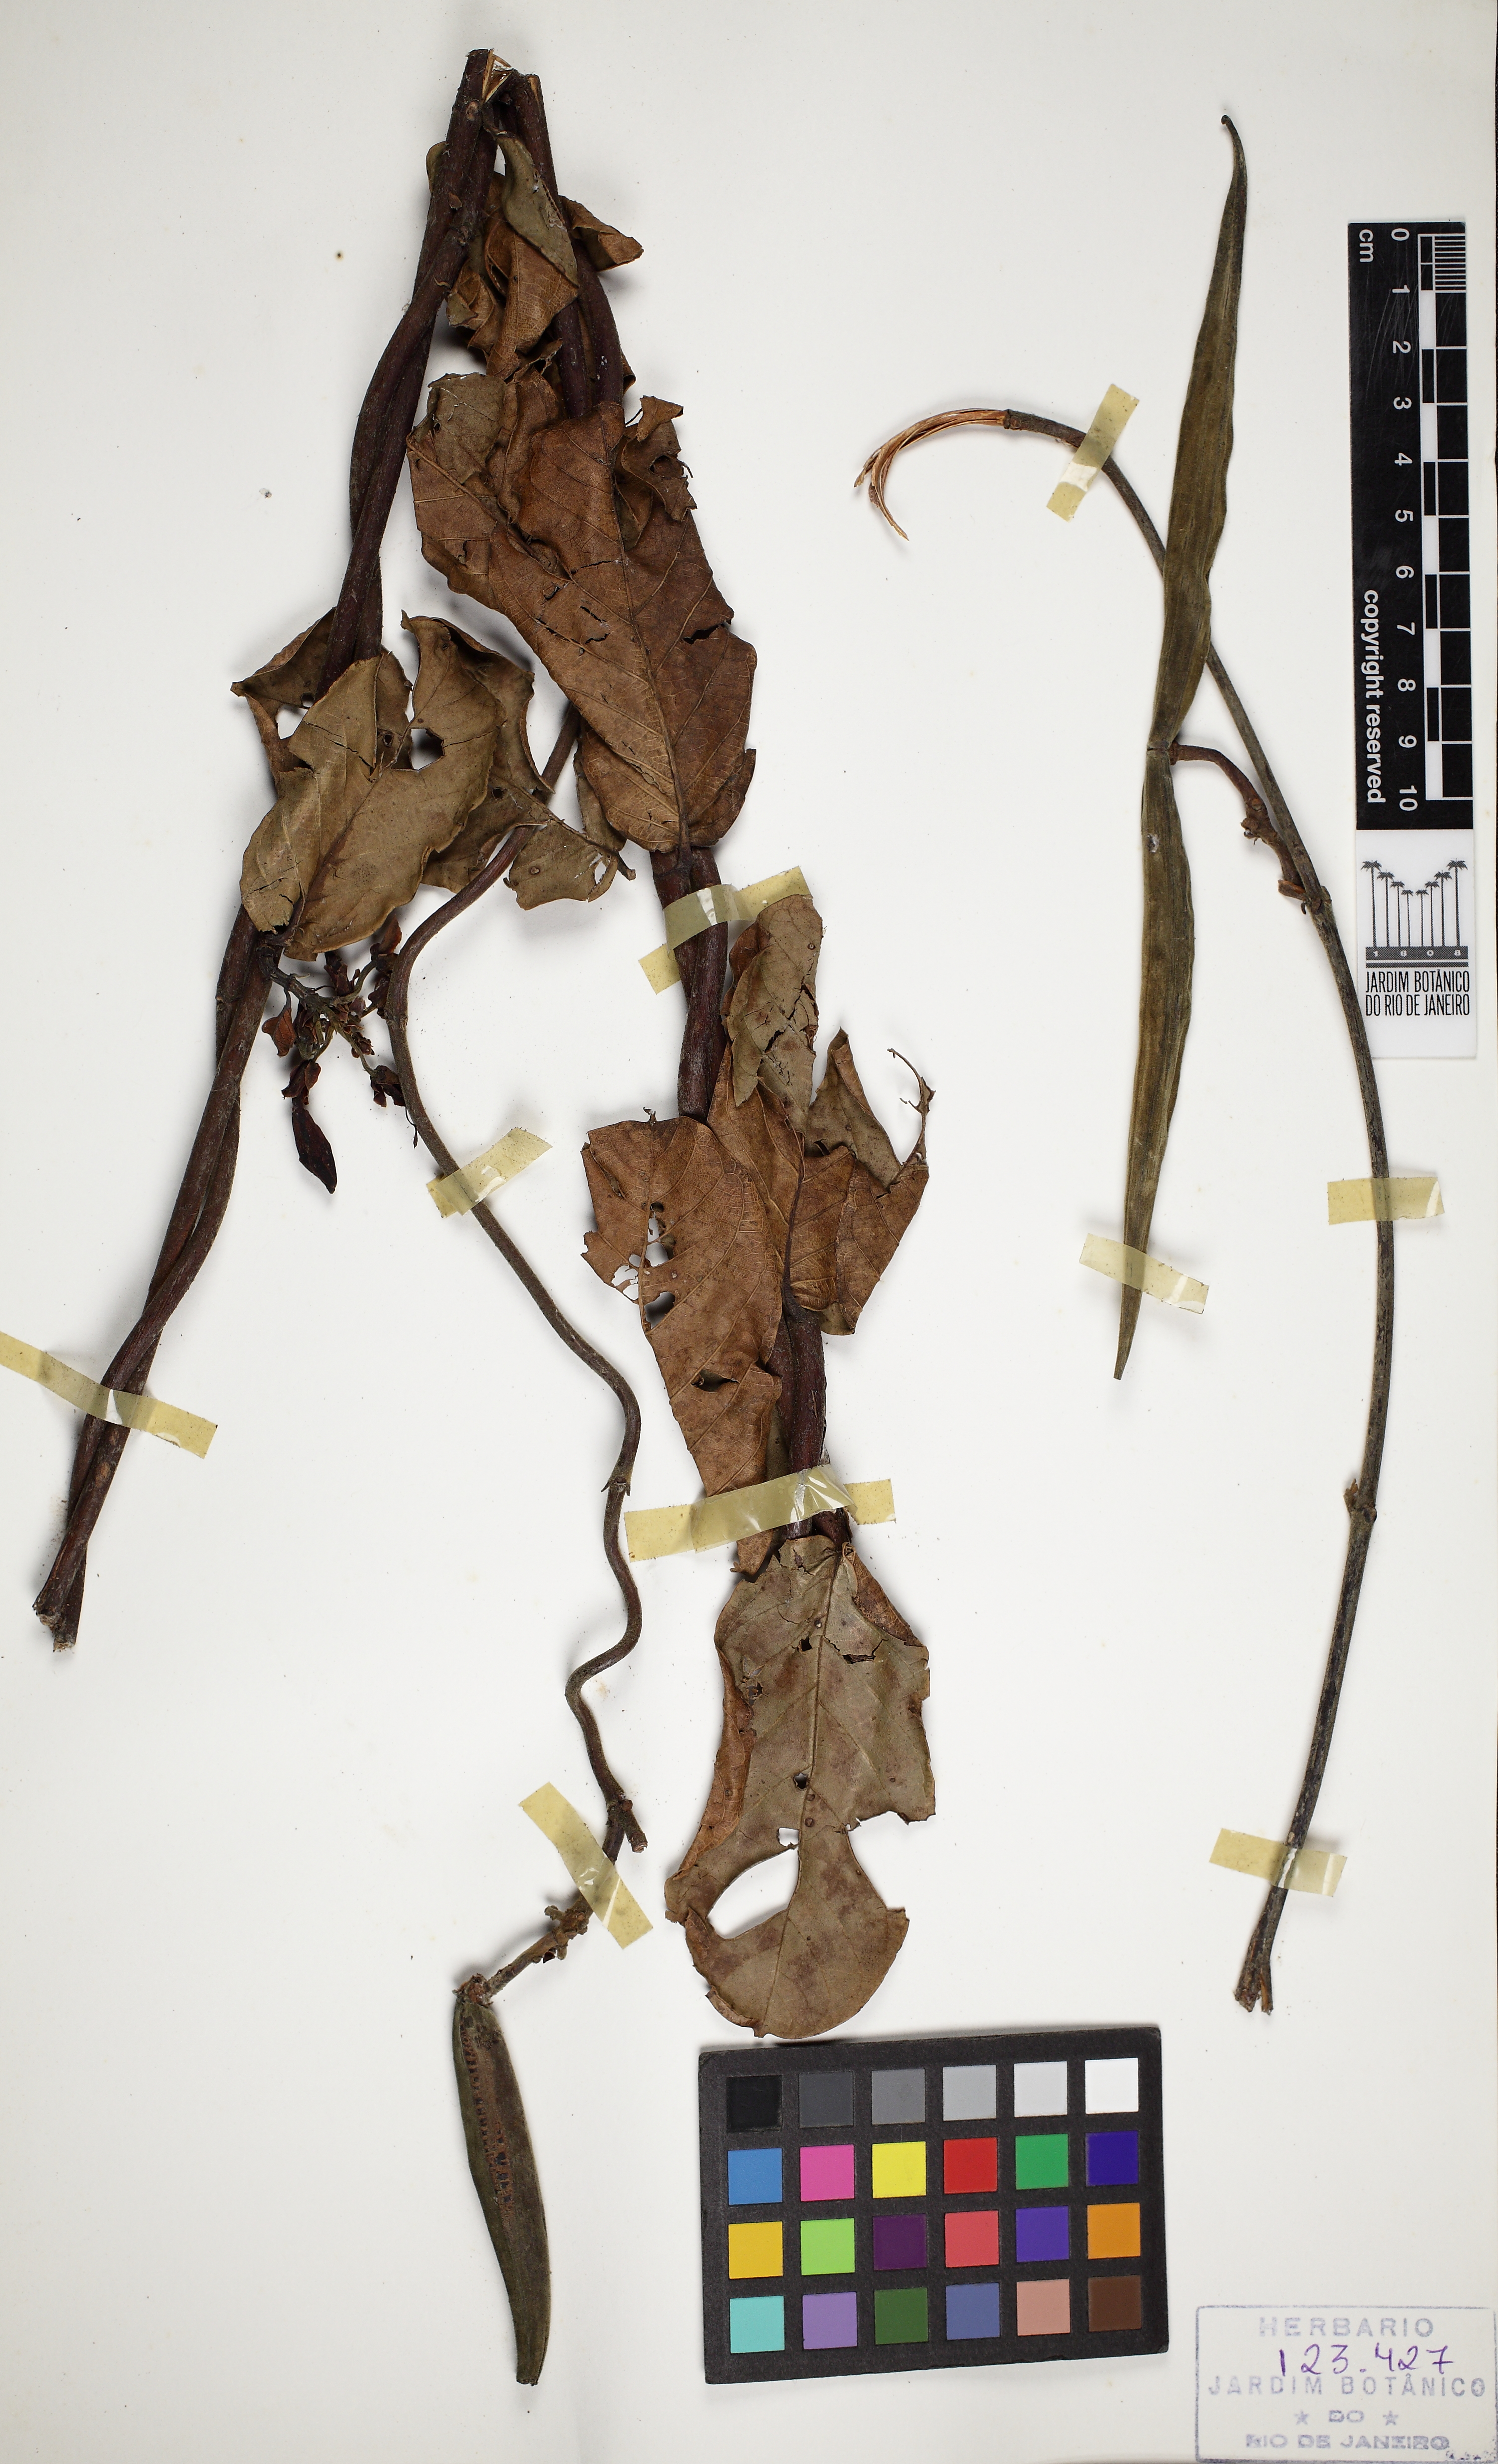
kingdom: Plantae
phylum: Tracheophyta
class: Magnoliopsida
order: Gentianales
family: Apocynaceae
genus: Odontadenia
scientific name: Odontadenia lutea
